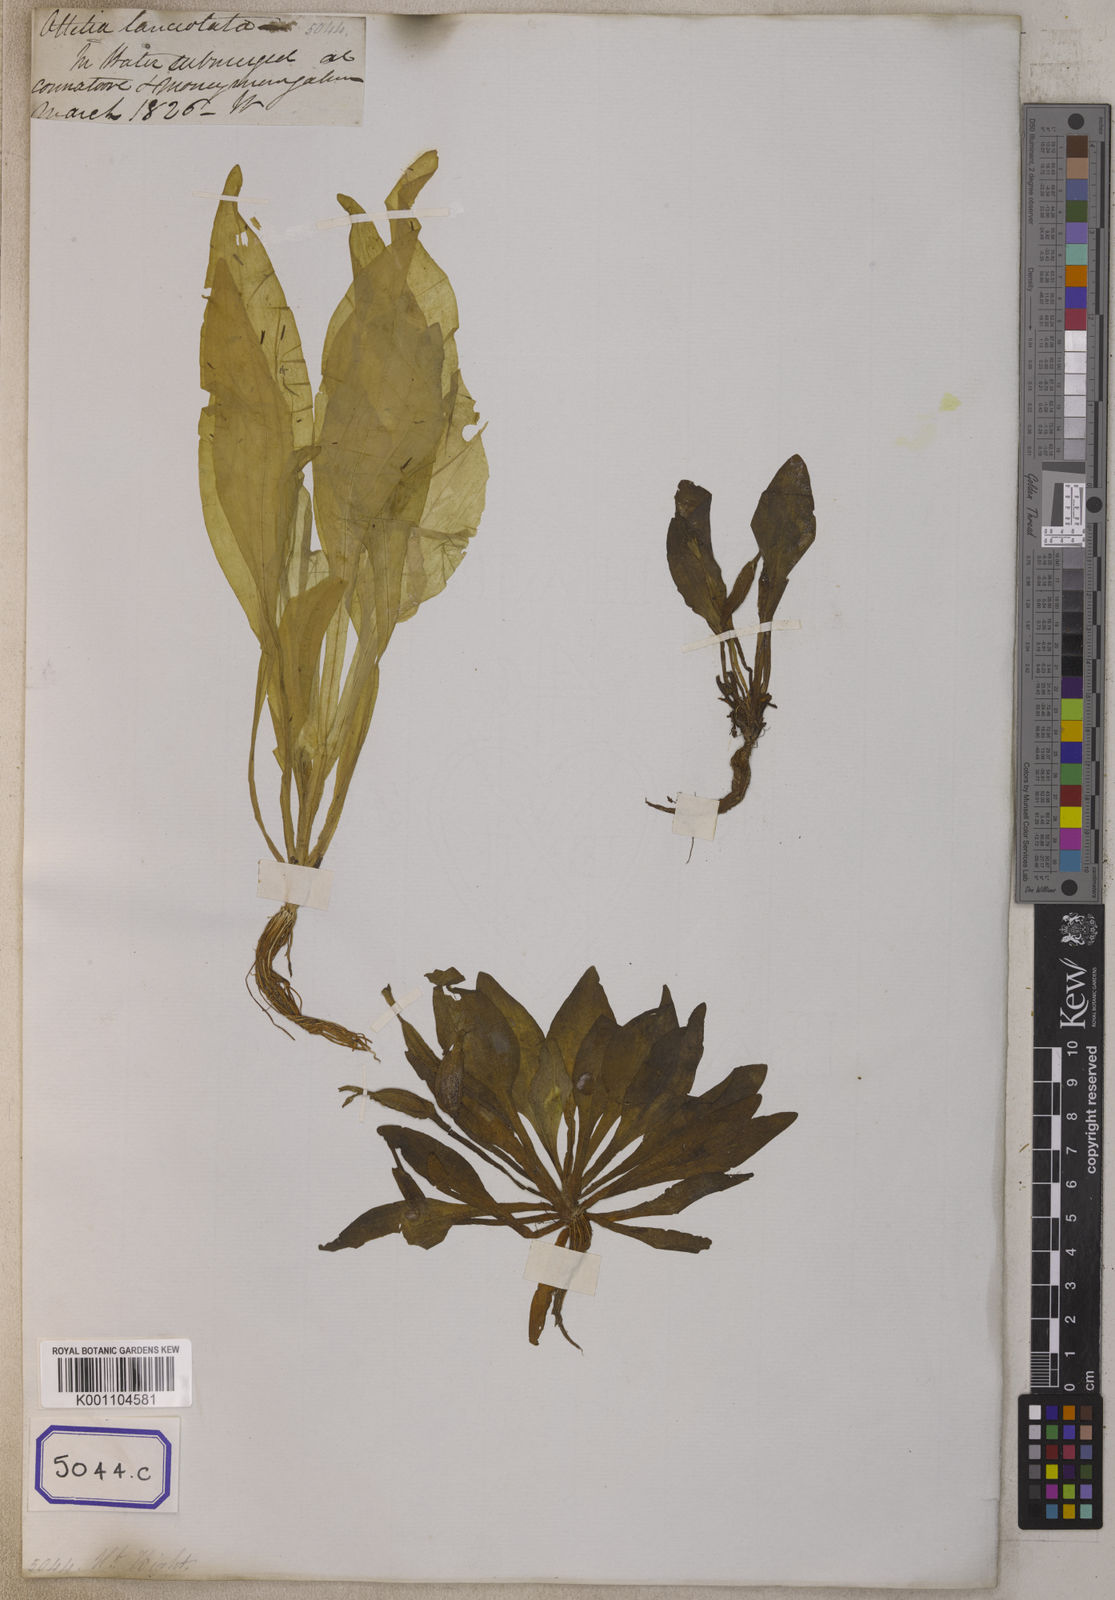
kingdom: Plantae
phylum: Tracheophyta
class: Liliopsida
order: Alismatales
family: Alismataceae
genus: Damasonium
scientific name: Damasonium
